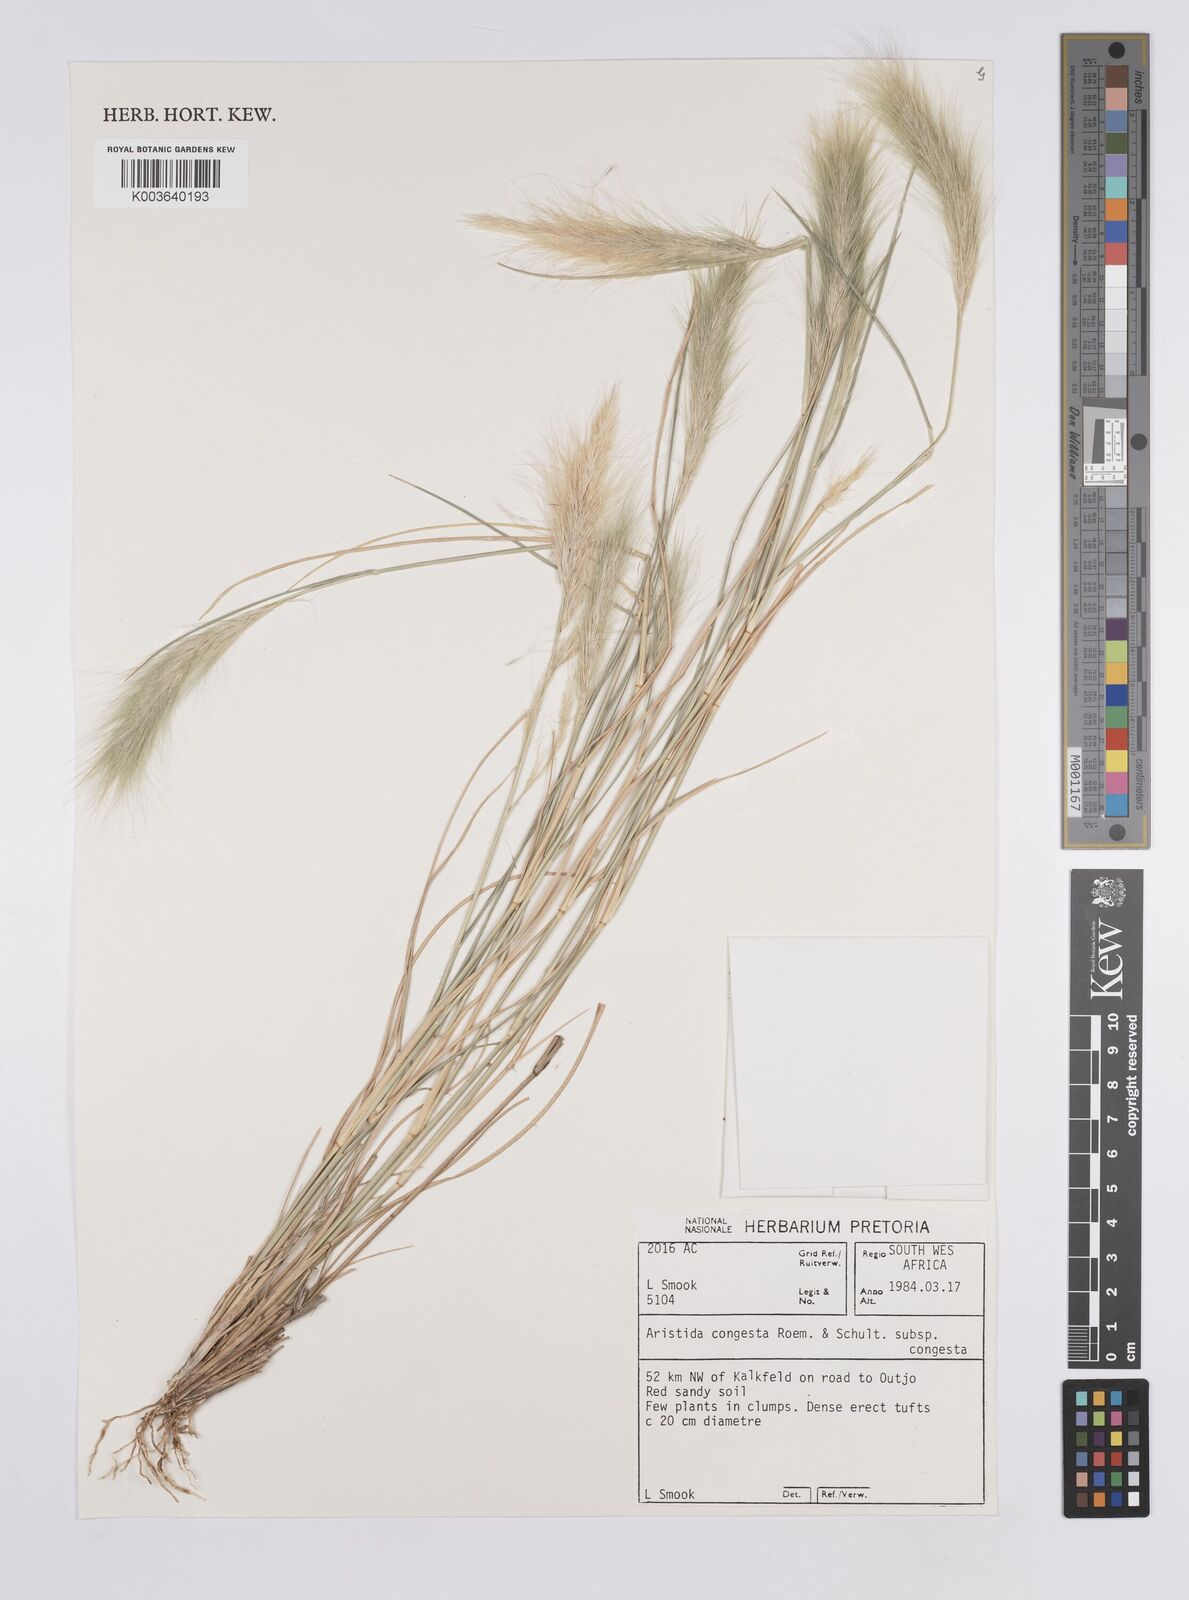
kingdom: Plantae
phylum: Tracheophyta
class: Liliopsida
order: Poales
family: Poaceae
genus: Aristida
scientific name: Aristida congesta
